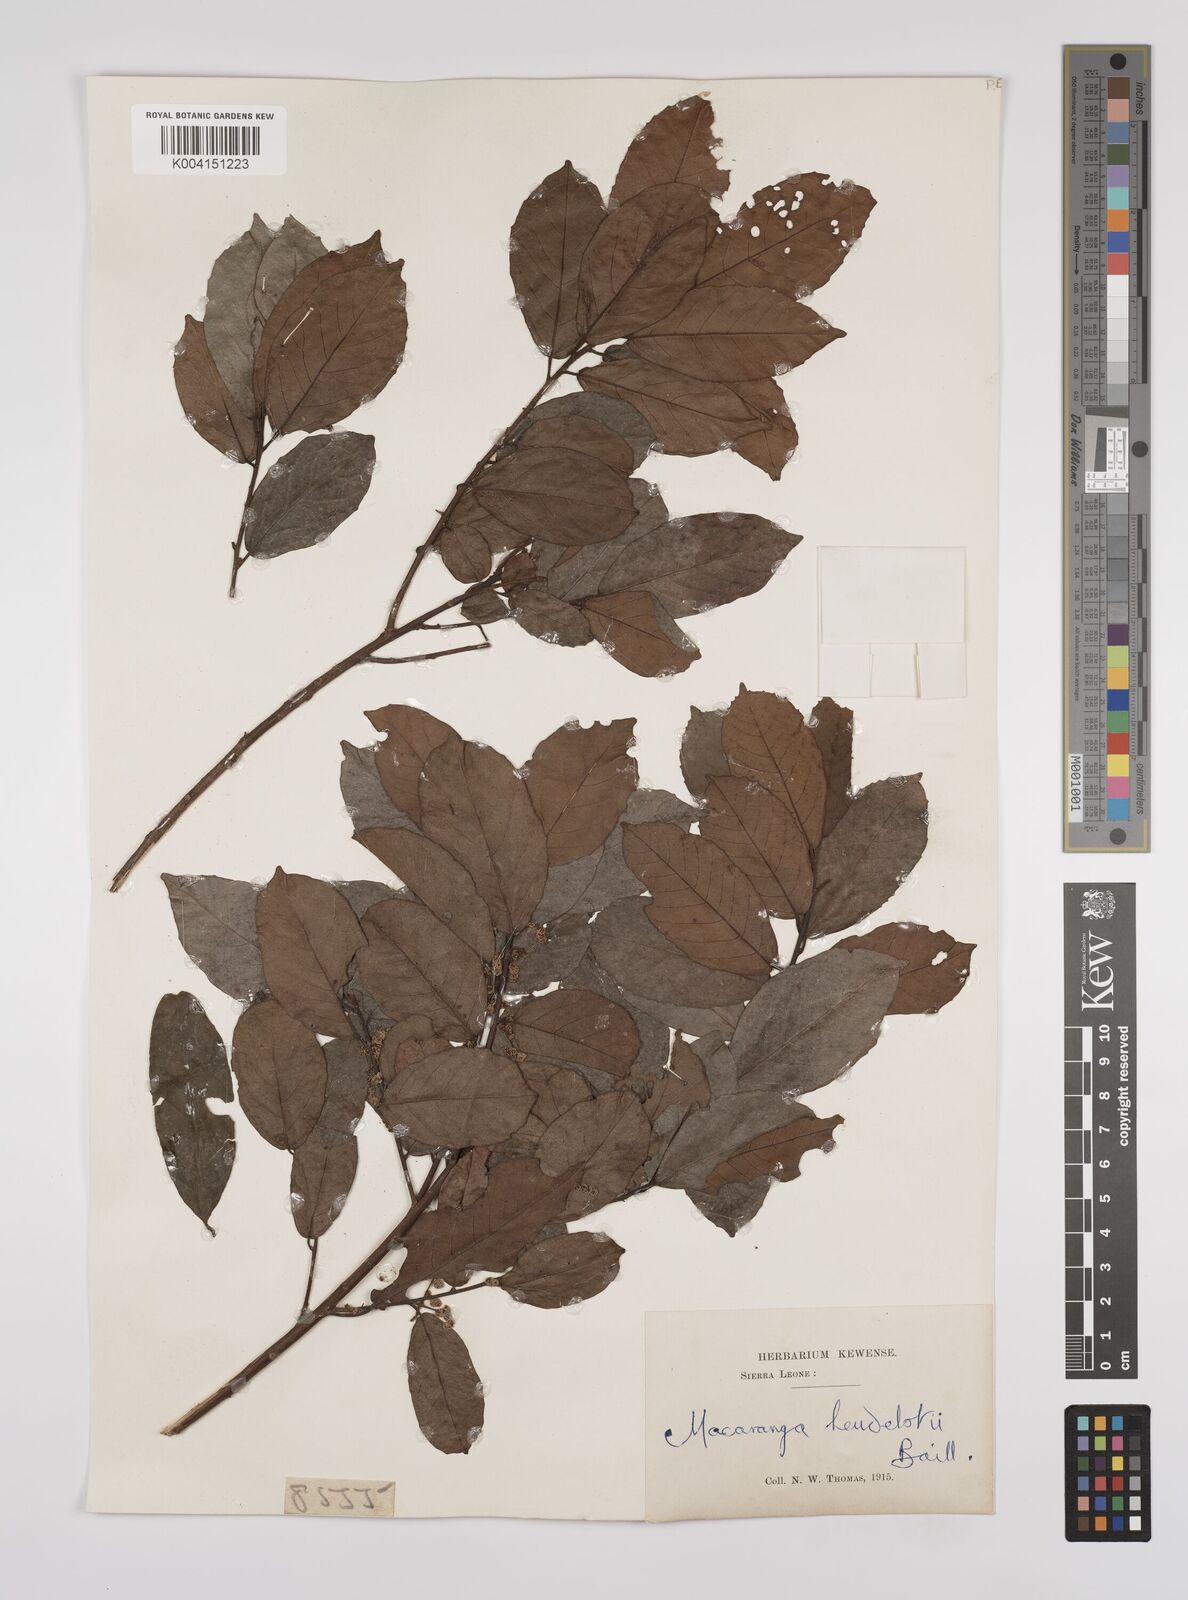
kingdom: Plantae
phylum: Tracheophyta
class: Magnoliopsida
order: Malpighiales
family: Euphorbiaceae
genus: Macaranga
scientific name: Macaranga heudelotii
